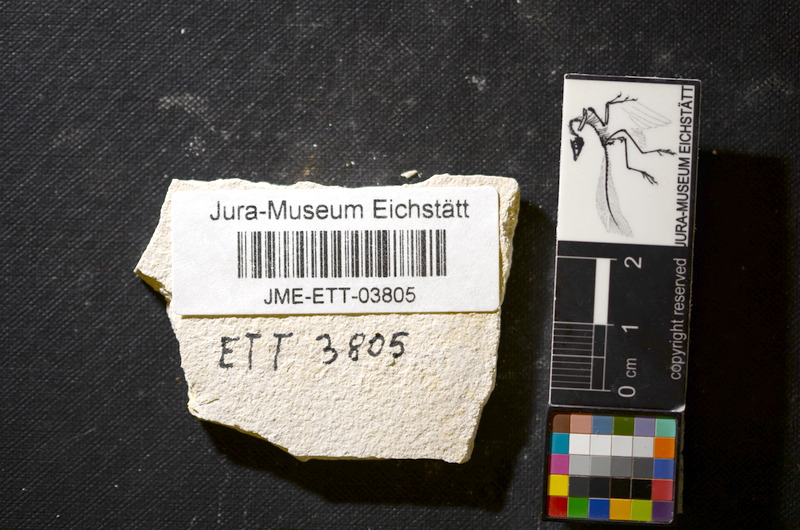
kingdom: Animalia
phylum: Chordata
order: Salmoniformes
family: Orthogonikleithridae
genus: Orthogonikleithrus
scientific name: Orthogonikleithrus hoelli
